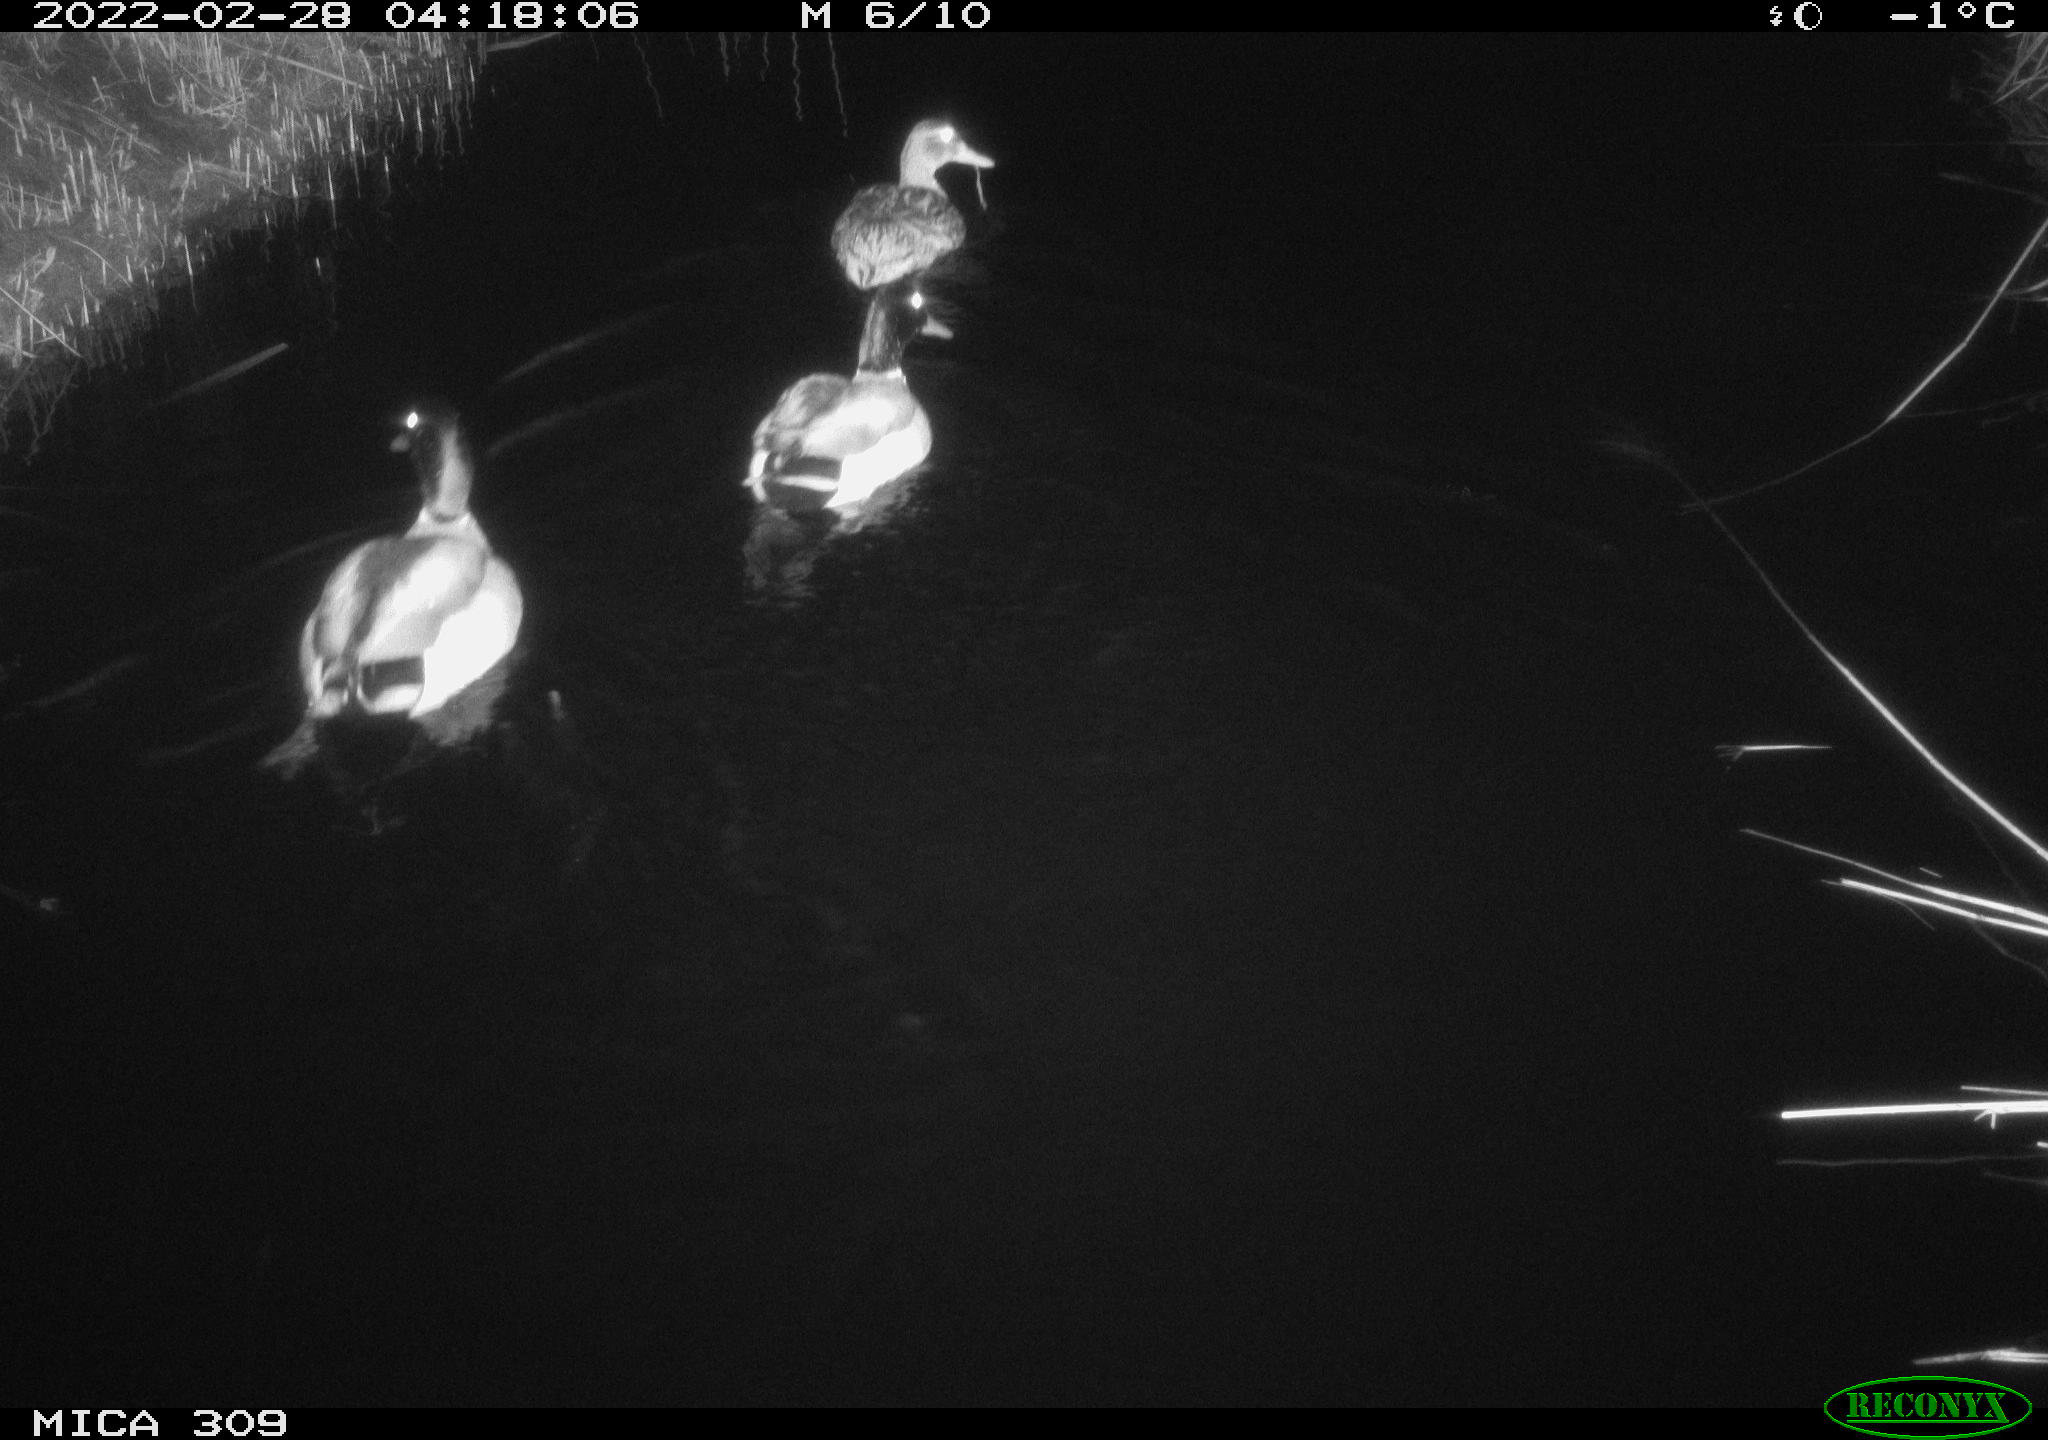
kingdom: Animalia
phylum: Chordata
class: Aves
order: Anseriformes
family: Anatidae
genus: Anas
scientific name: Anas platyrhynchos
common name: Mallard
